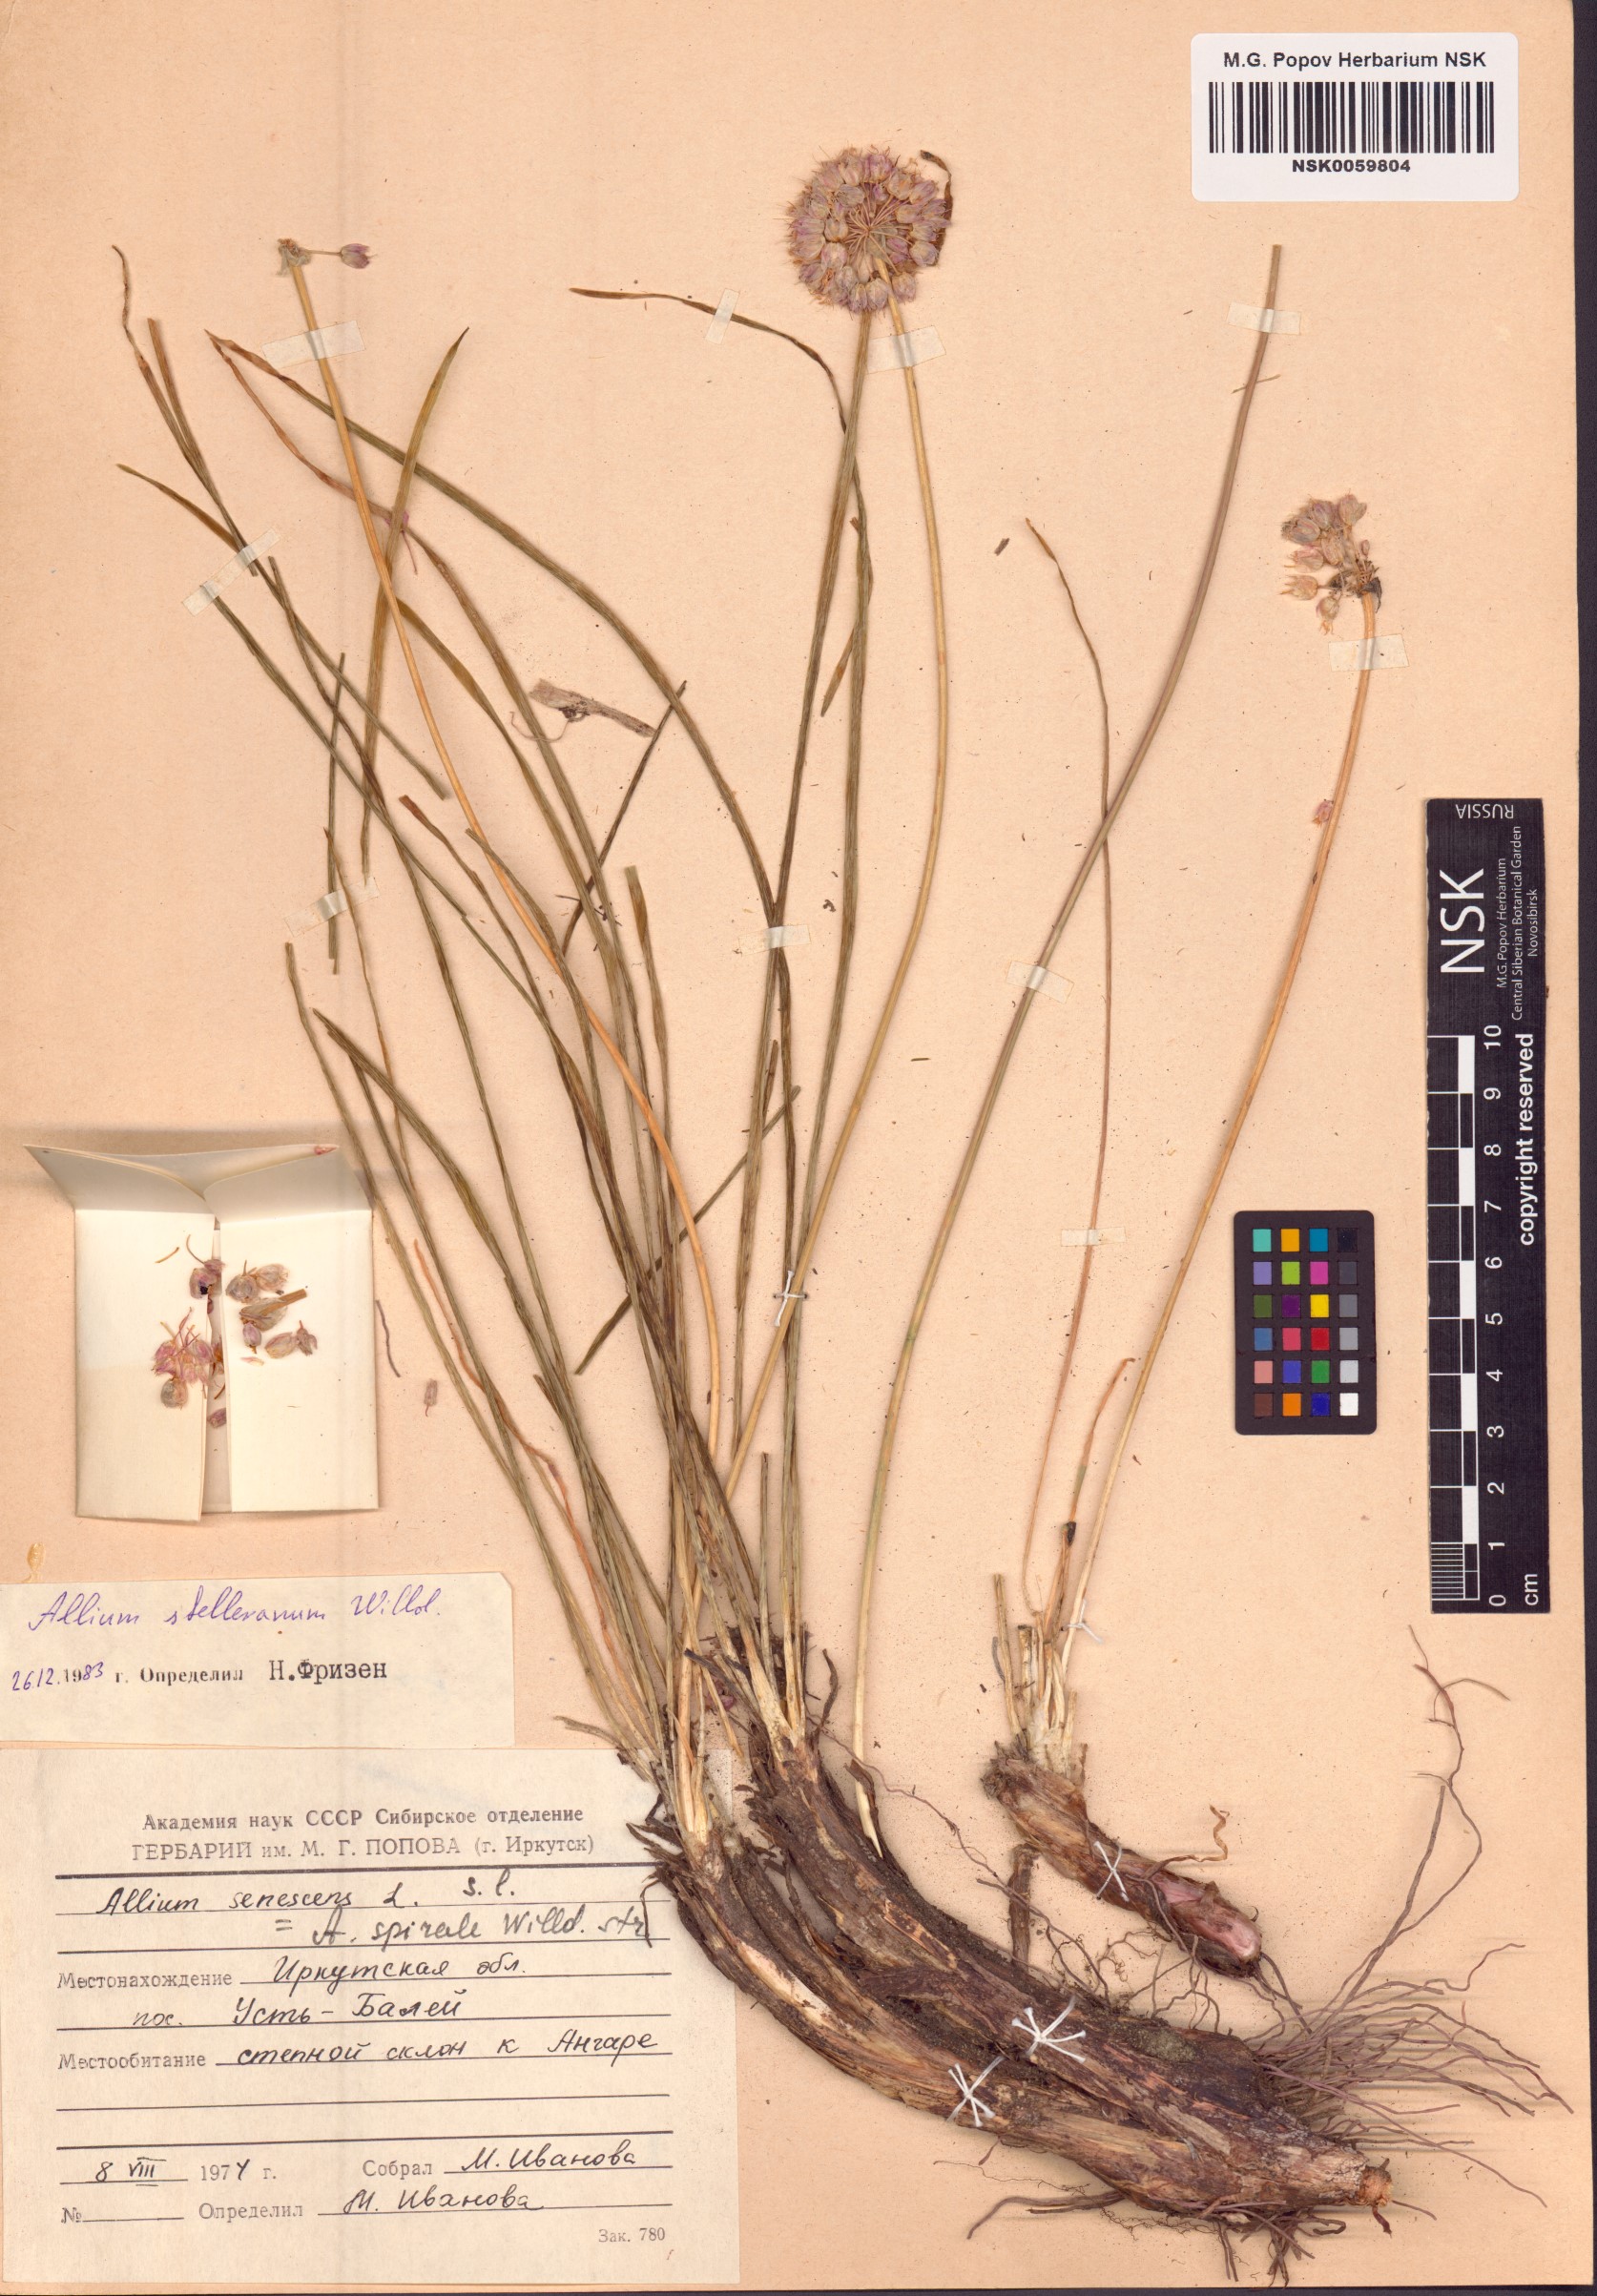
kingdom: Plantae
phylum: Tracheophyta
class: Liliopsida
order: Asparagales
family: Amaryllidaceae
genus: Allium
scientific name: Allium stellerianum
